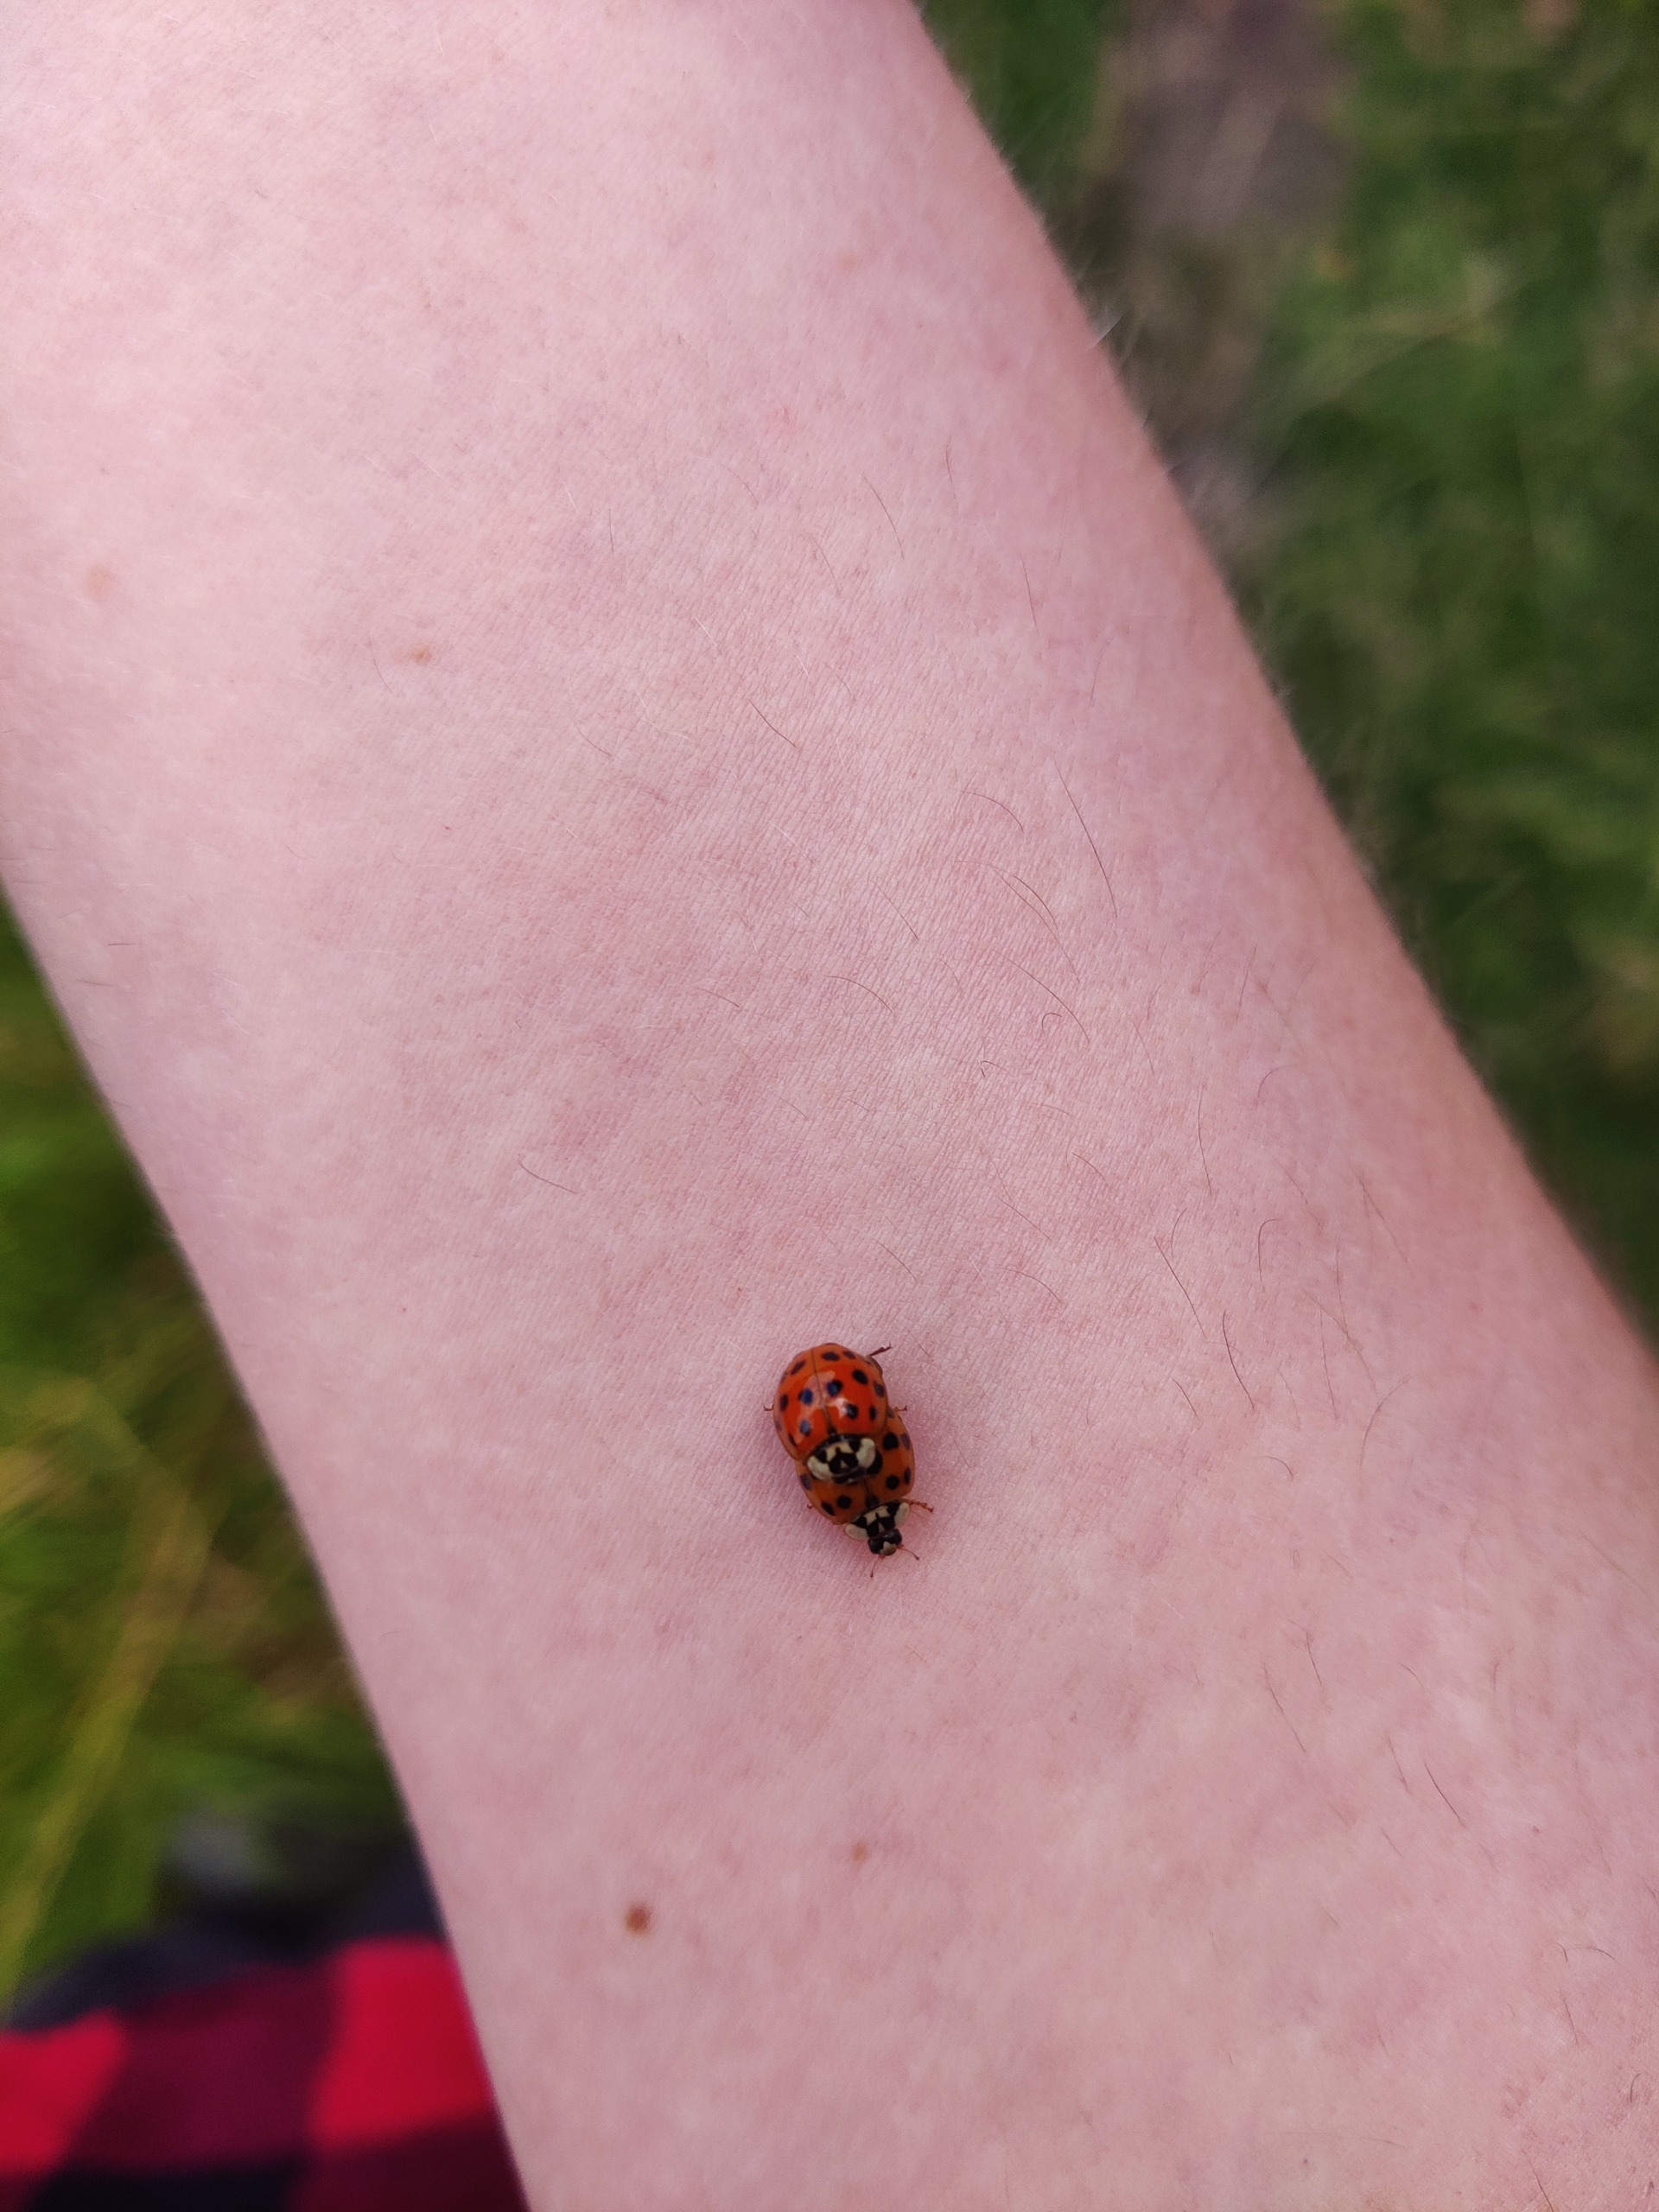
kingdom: Animalia
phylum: Arthropoda
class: Insecta
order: Coleoptera
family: Coccinellidae
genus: Harmonia
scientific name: Harmonia axyridis
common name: Harlekinmariehøne
